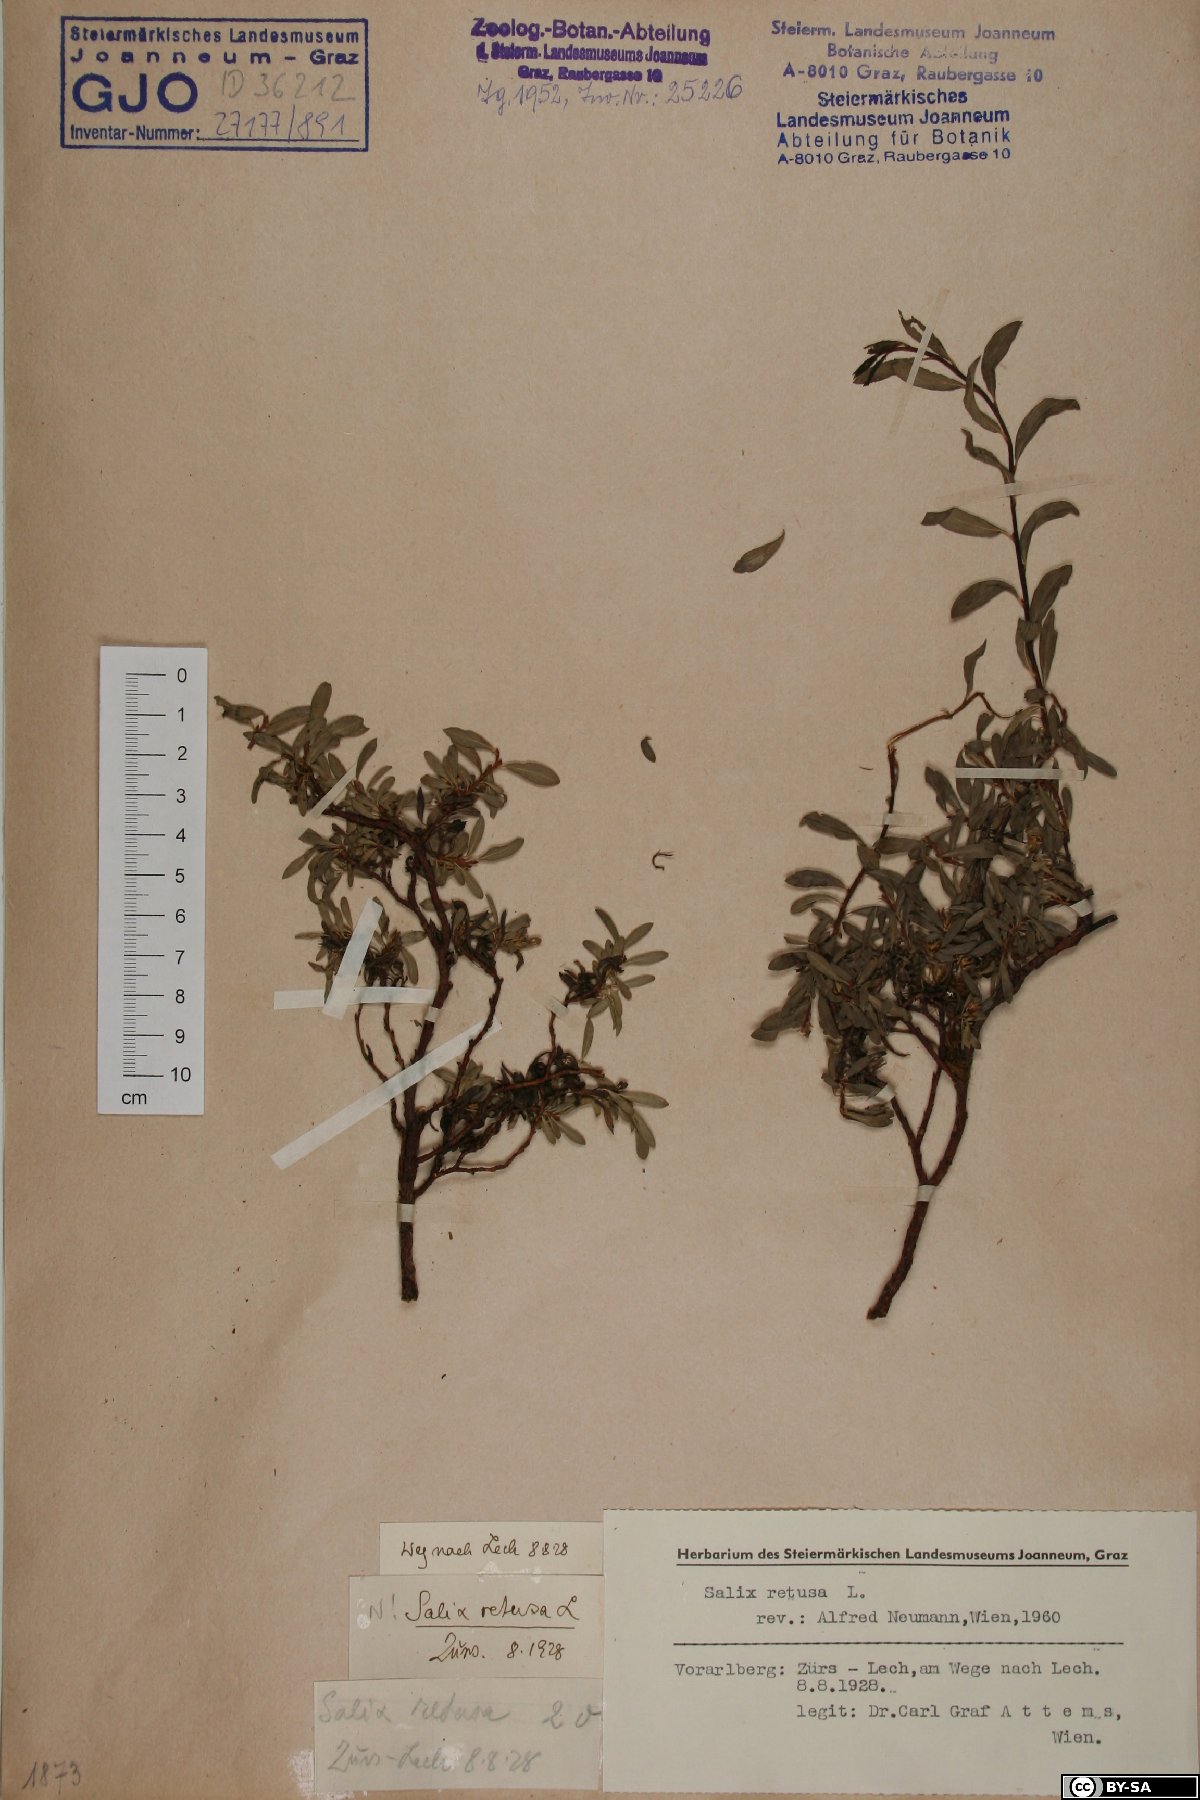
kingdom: Plantae
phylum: Tracheophyta
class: Magnoliopsida
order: Malpighiales
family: Salicaceae
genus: Salix
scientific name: Salix retusa
